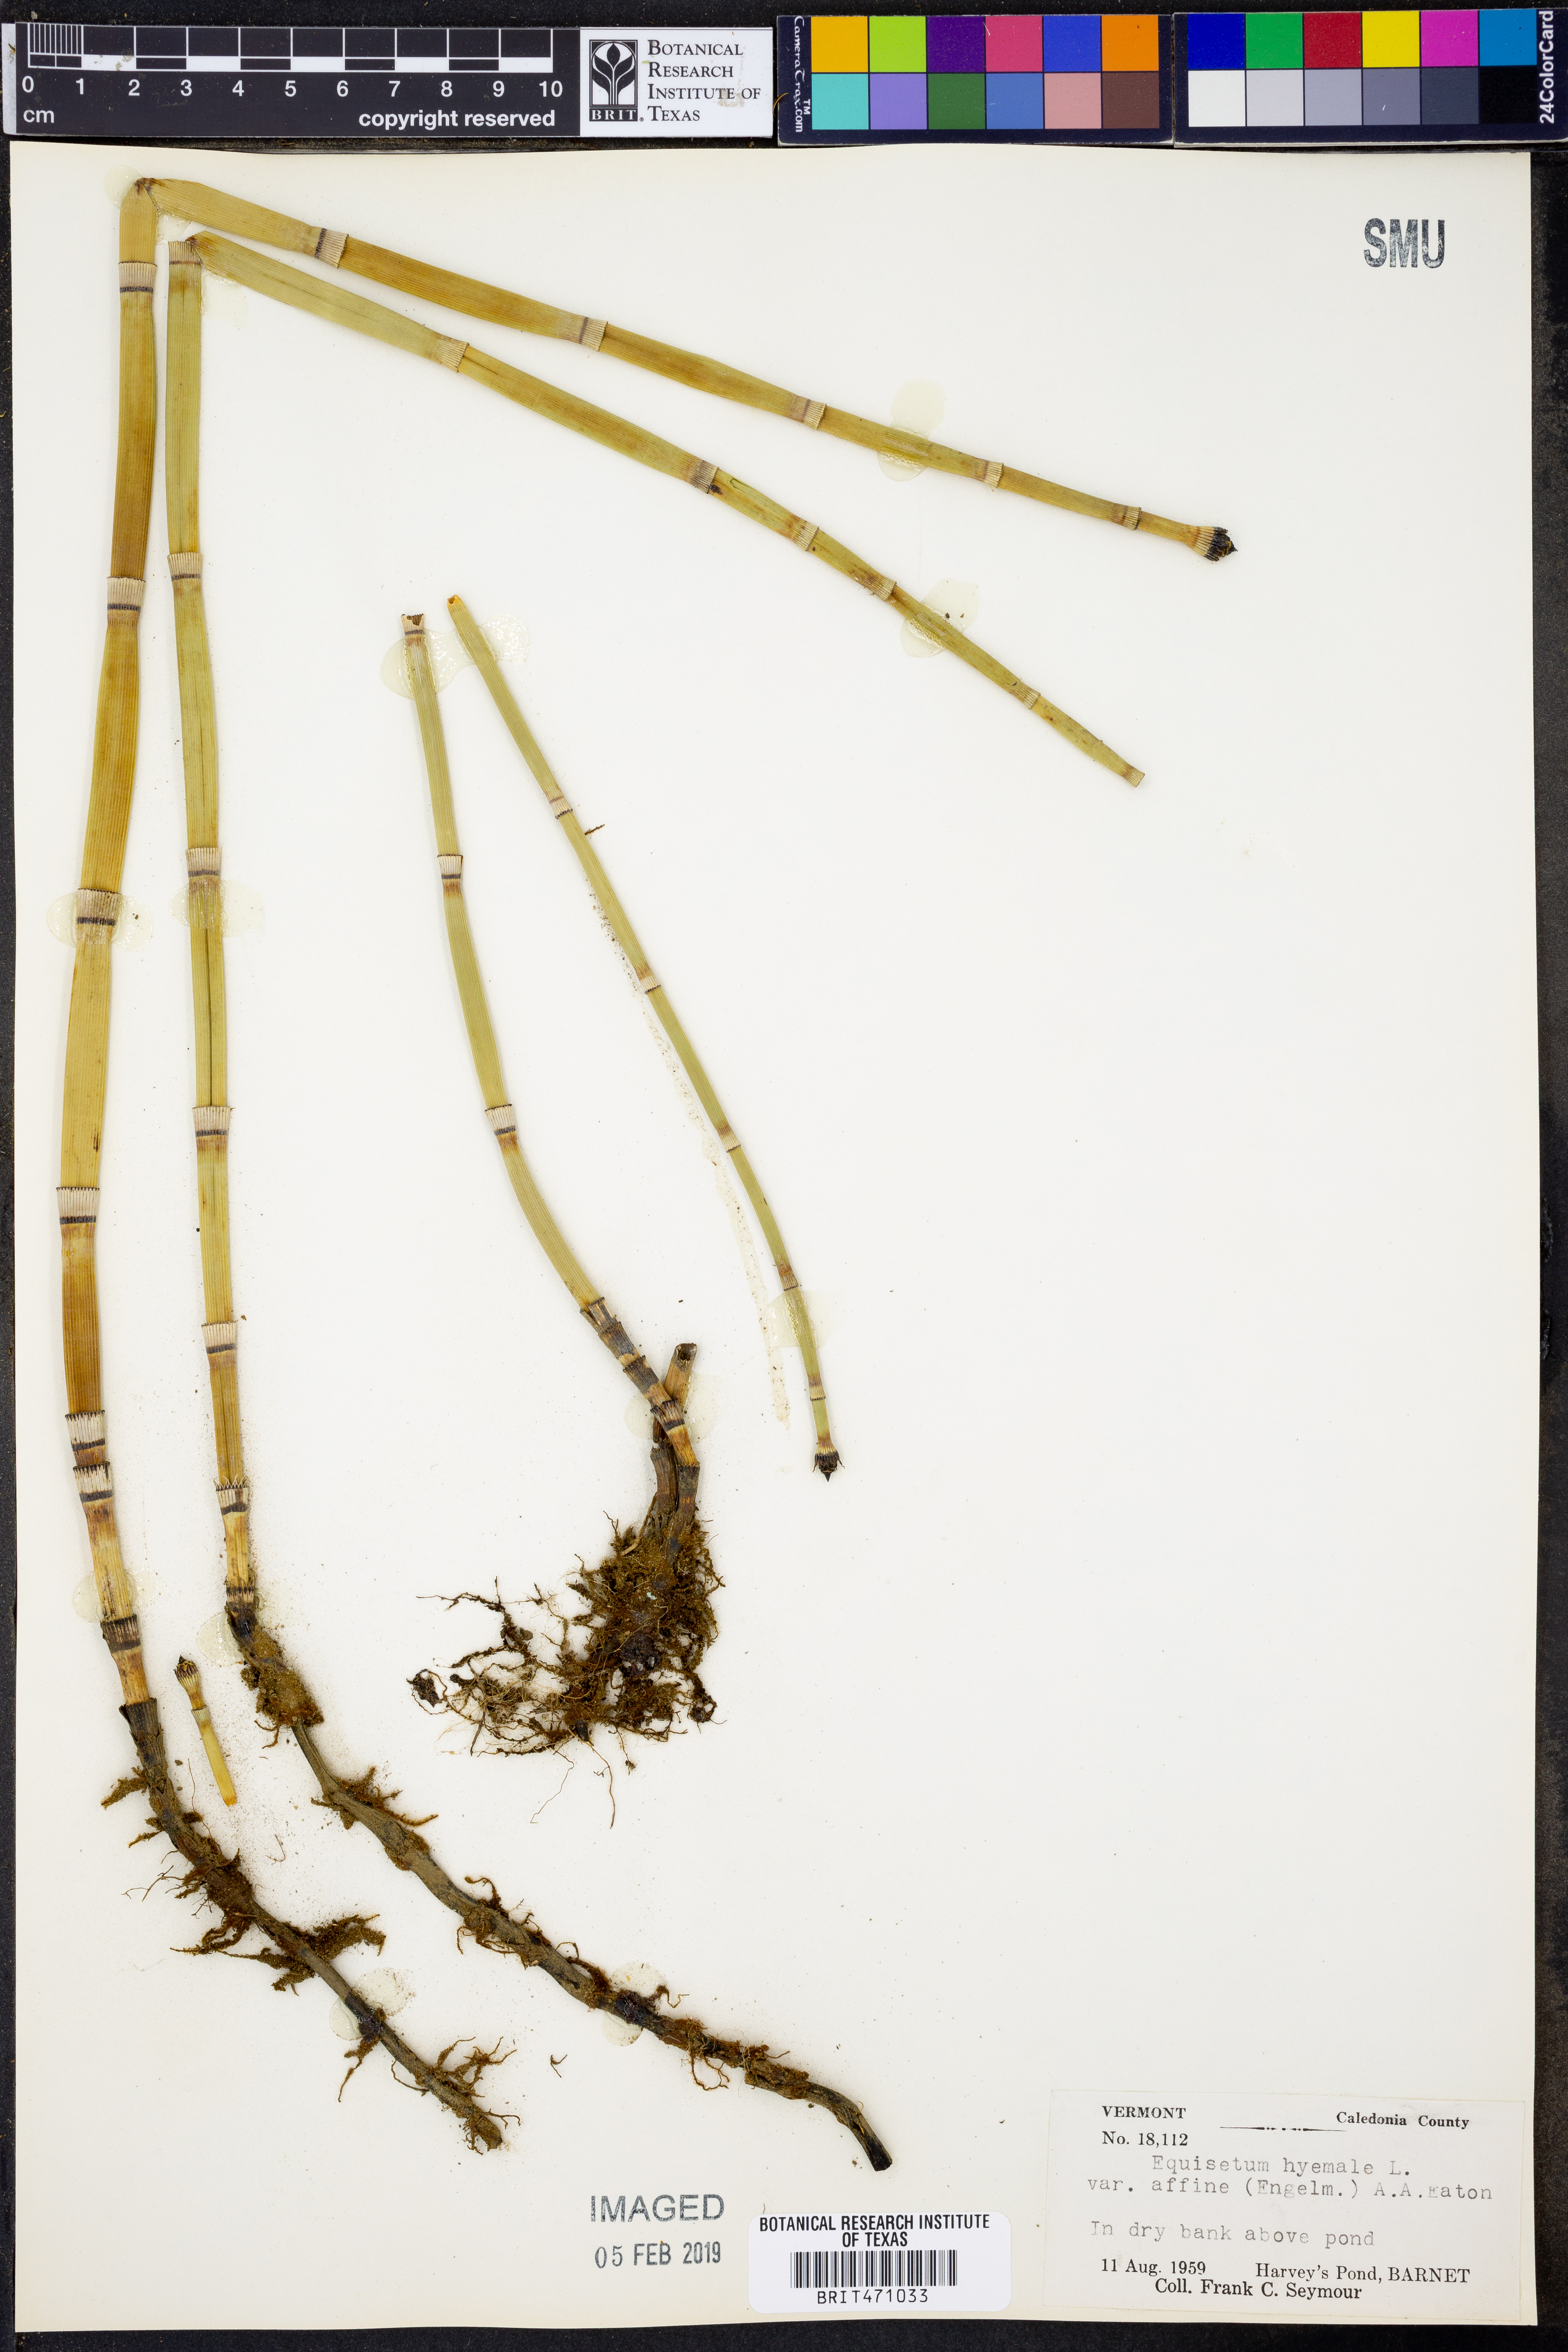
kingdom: Plantae
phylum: Tracheophyta
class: Polypodiopsida
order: Equisetales
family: Equisetaceae
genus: Equisetum
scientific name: Equisetum praealtum
